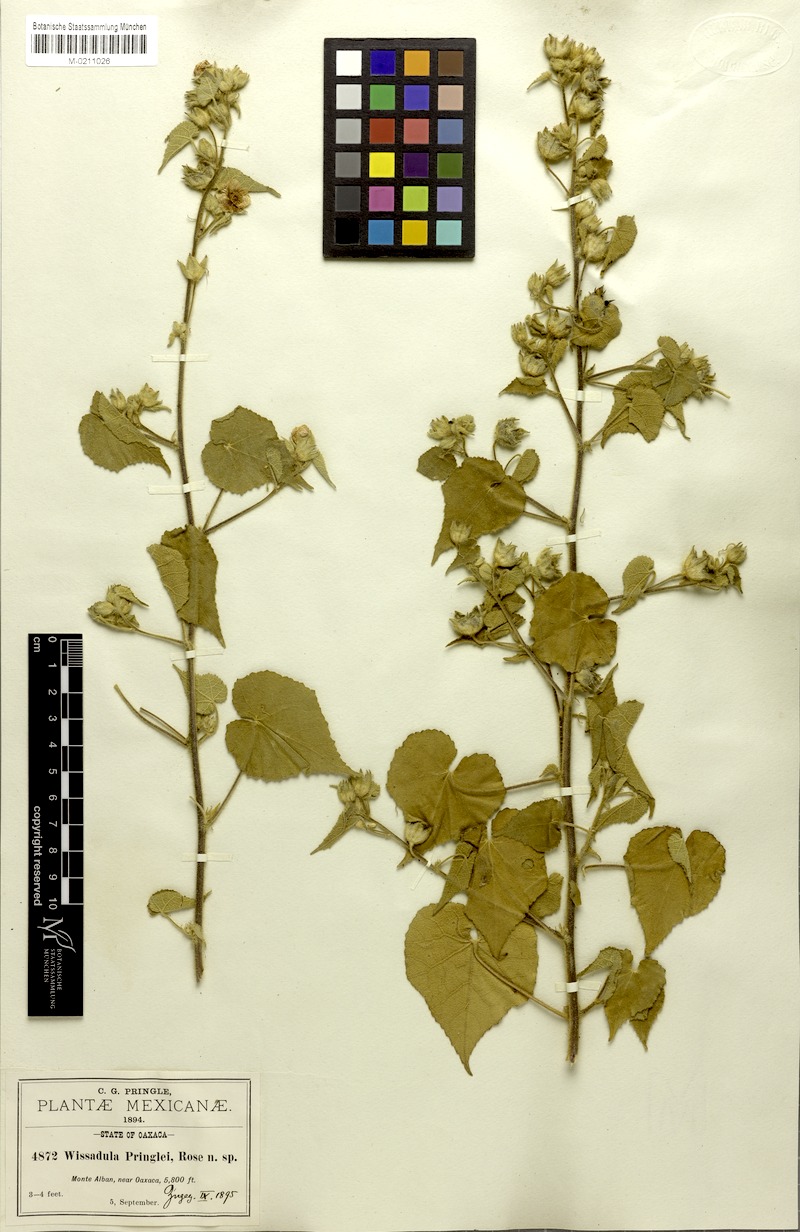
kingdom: Plantae
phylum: Tracheophyta
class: Magnoliopsida
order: Malvales
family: Malvaceae
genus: Allowissadula
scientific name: Allowissadula pringlei
